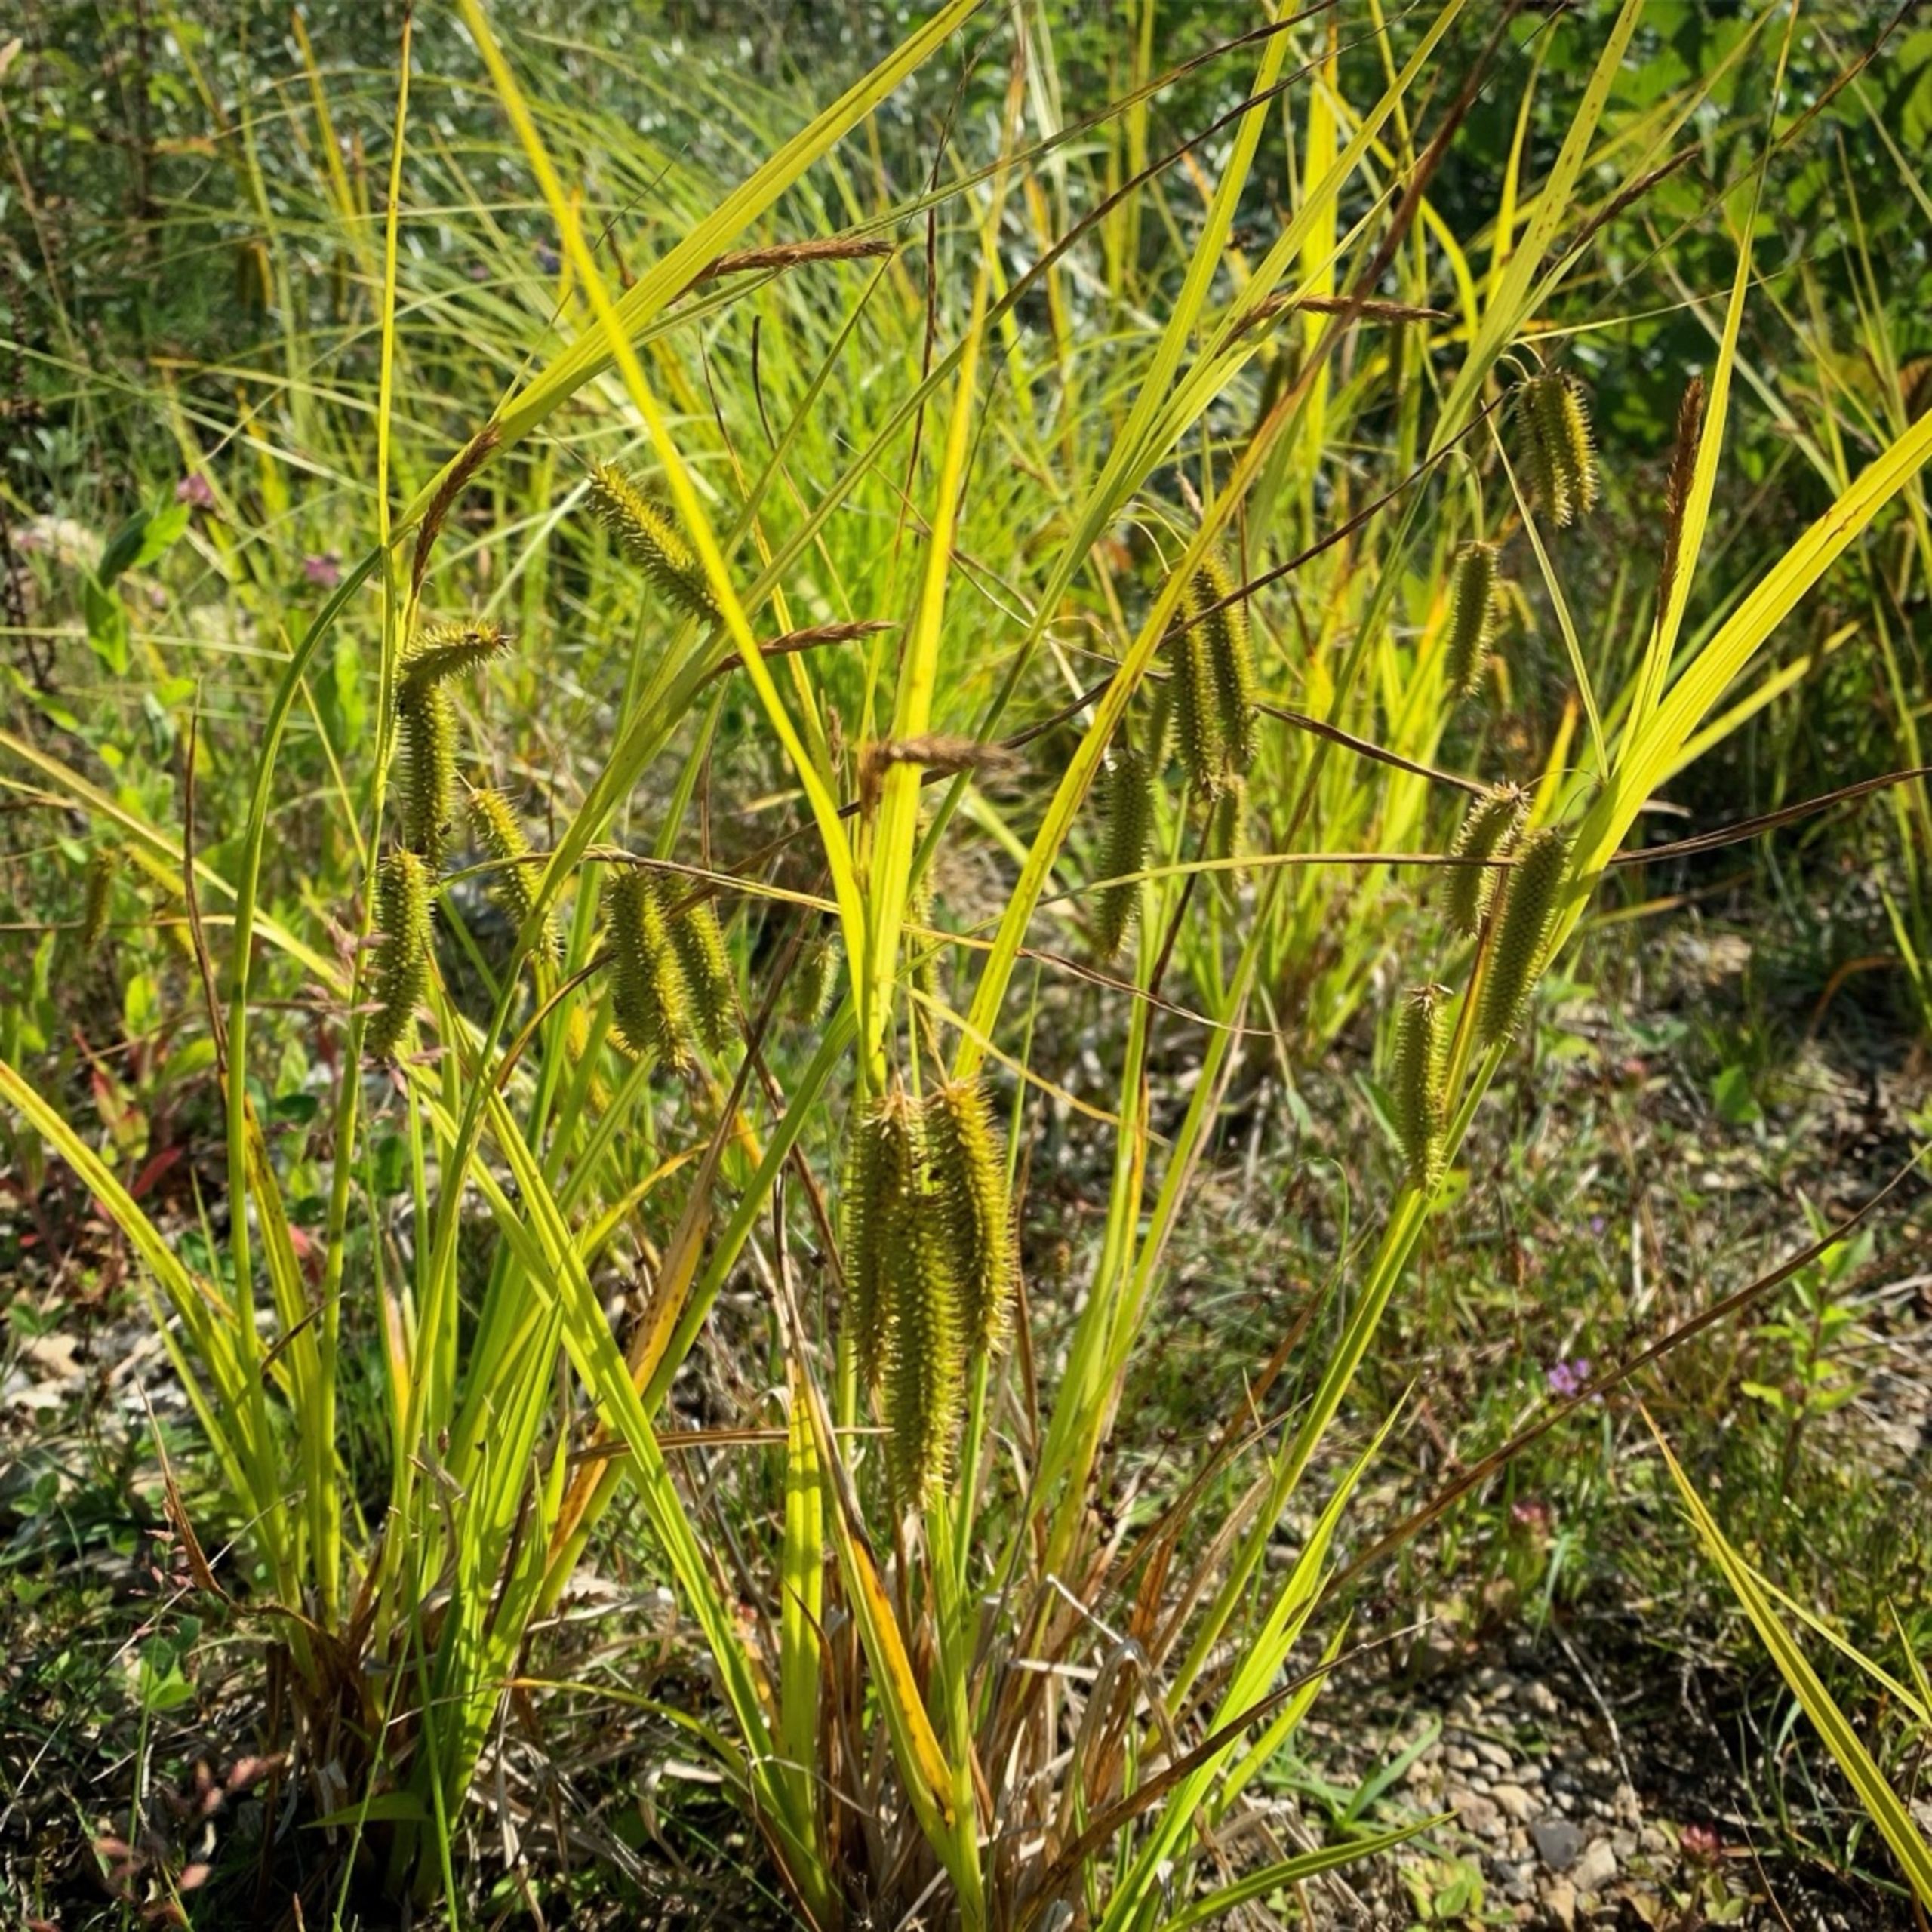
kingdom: Plantae
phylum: Tracheophyta
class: Liliopsida
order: Poales
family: Cyperaceae
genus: Carex
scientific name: Carex pseudocyperus
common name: Knippe-star
